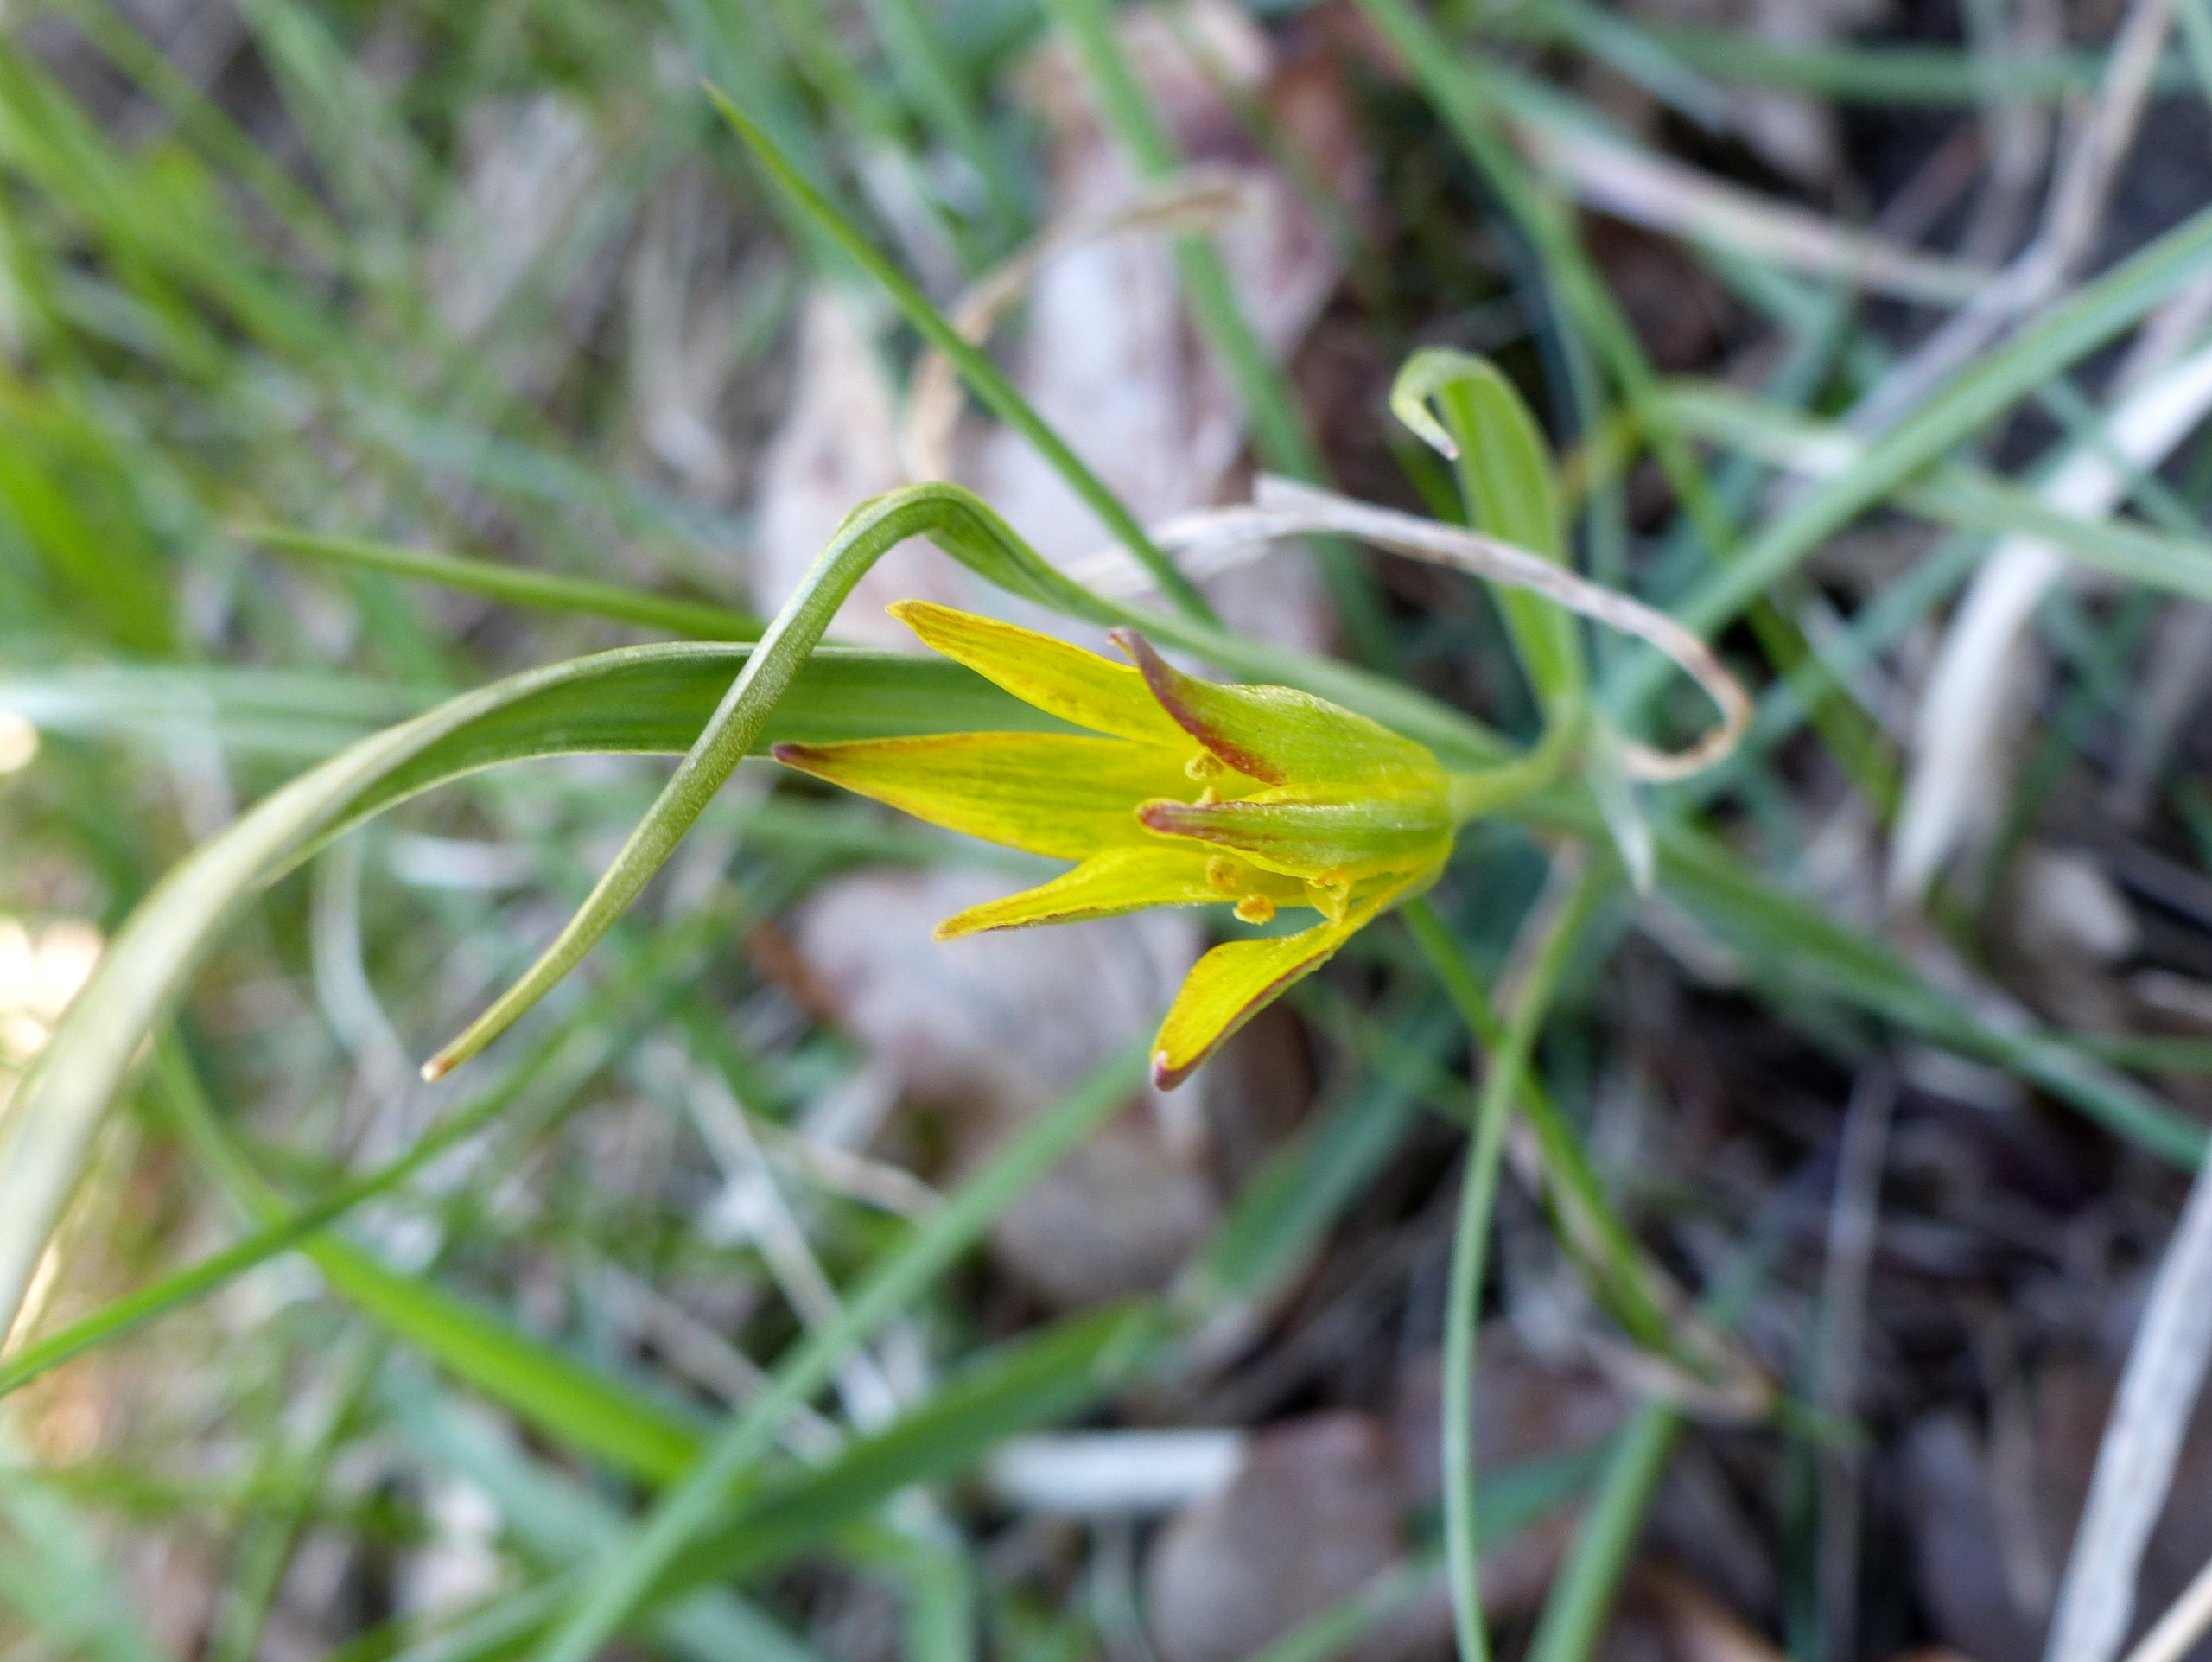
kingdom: Plantae
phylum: Tracheophyta
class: Liliopsida
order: Liliales
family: Liliaceae
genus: Gagea
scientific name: Gagea pratensis
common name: Eng-guldstjerne
